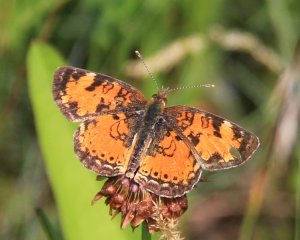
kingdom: Animalia
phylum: Arthropoda
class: Insecta
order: Lepidoptera
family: Nymphalidae
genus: Phyciodes
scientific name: Phyciodes tharos
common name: Northern Crescent
